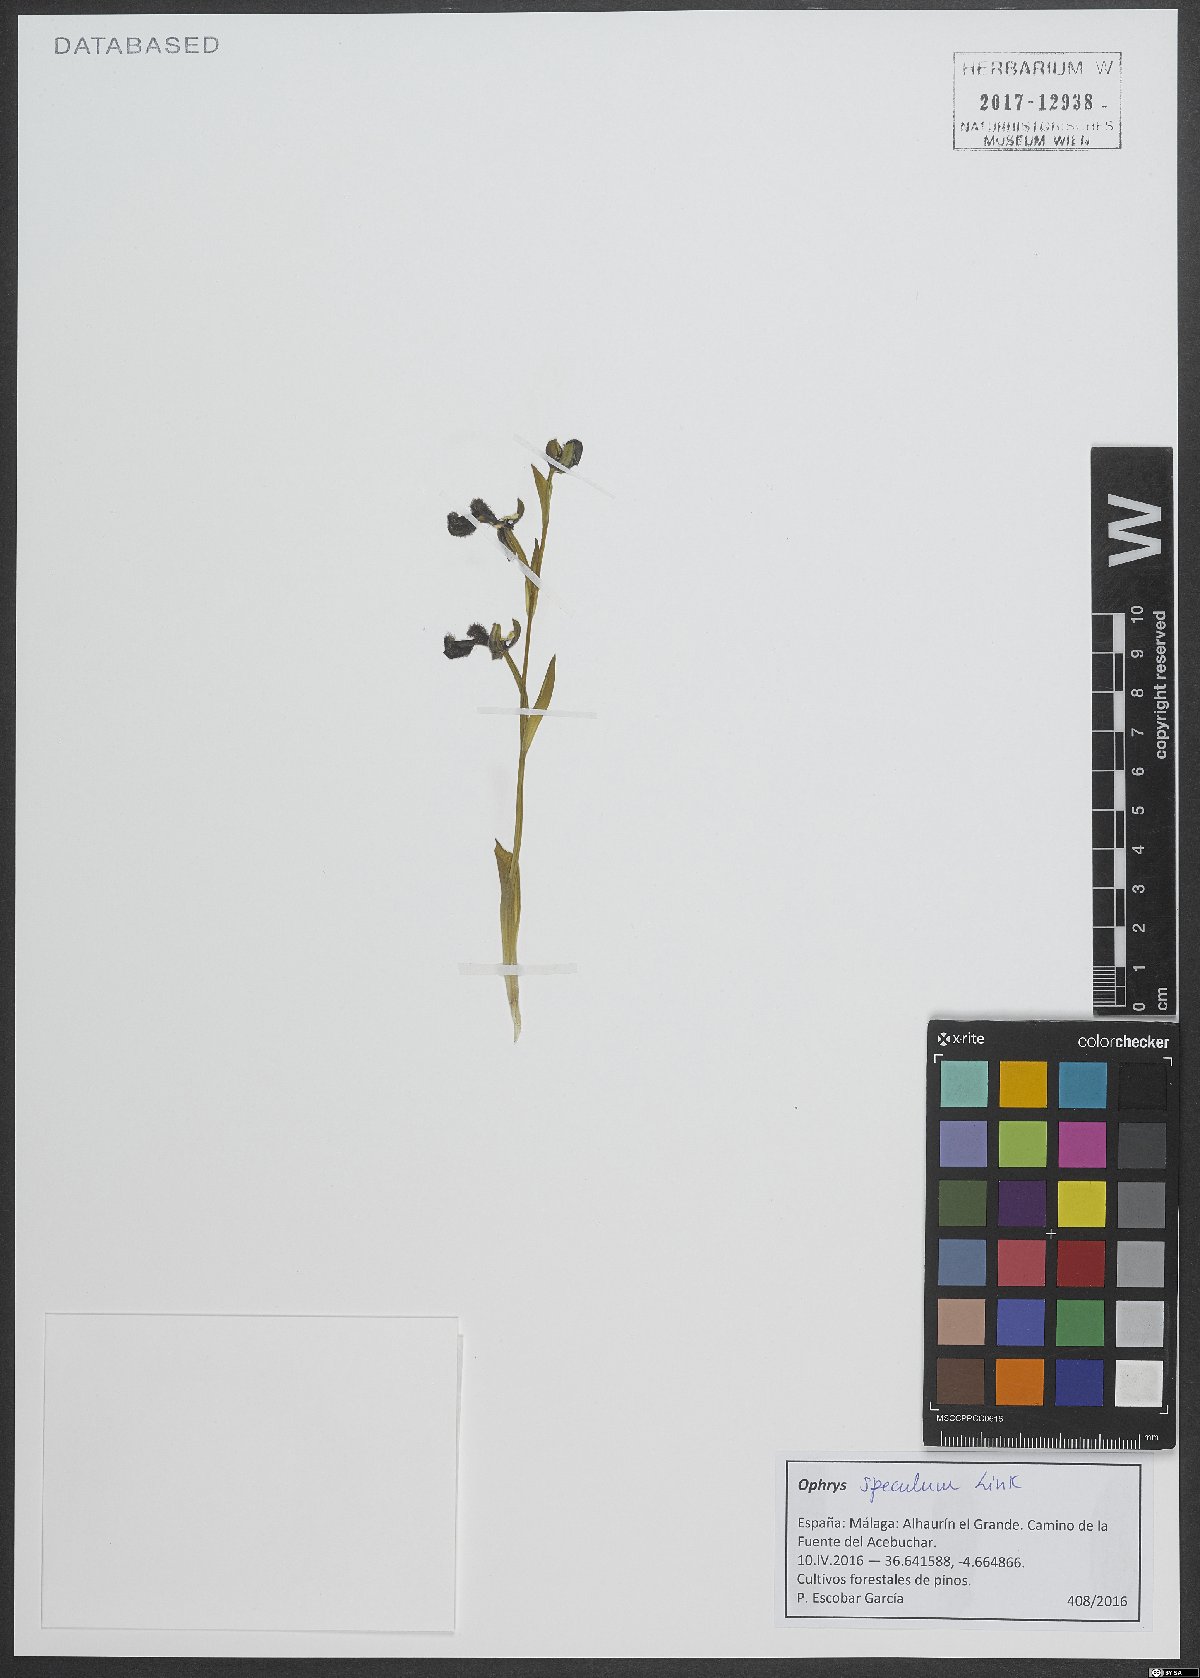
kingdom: Plantae
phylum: Tracheophyta
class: Liliopsida
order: Asparagales
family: Orchidaceae
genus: Ophrys
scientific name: Ophrys speculum
